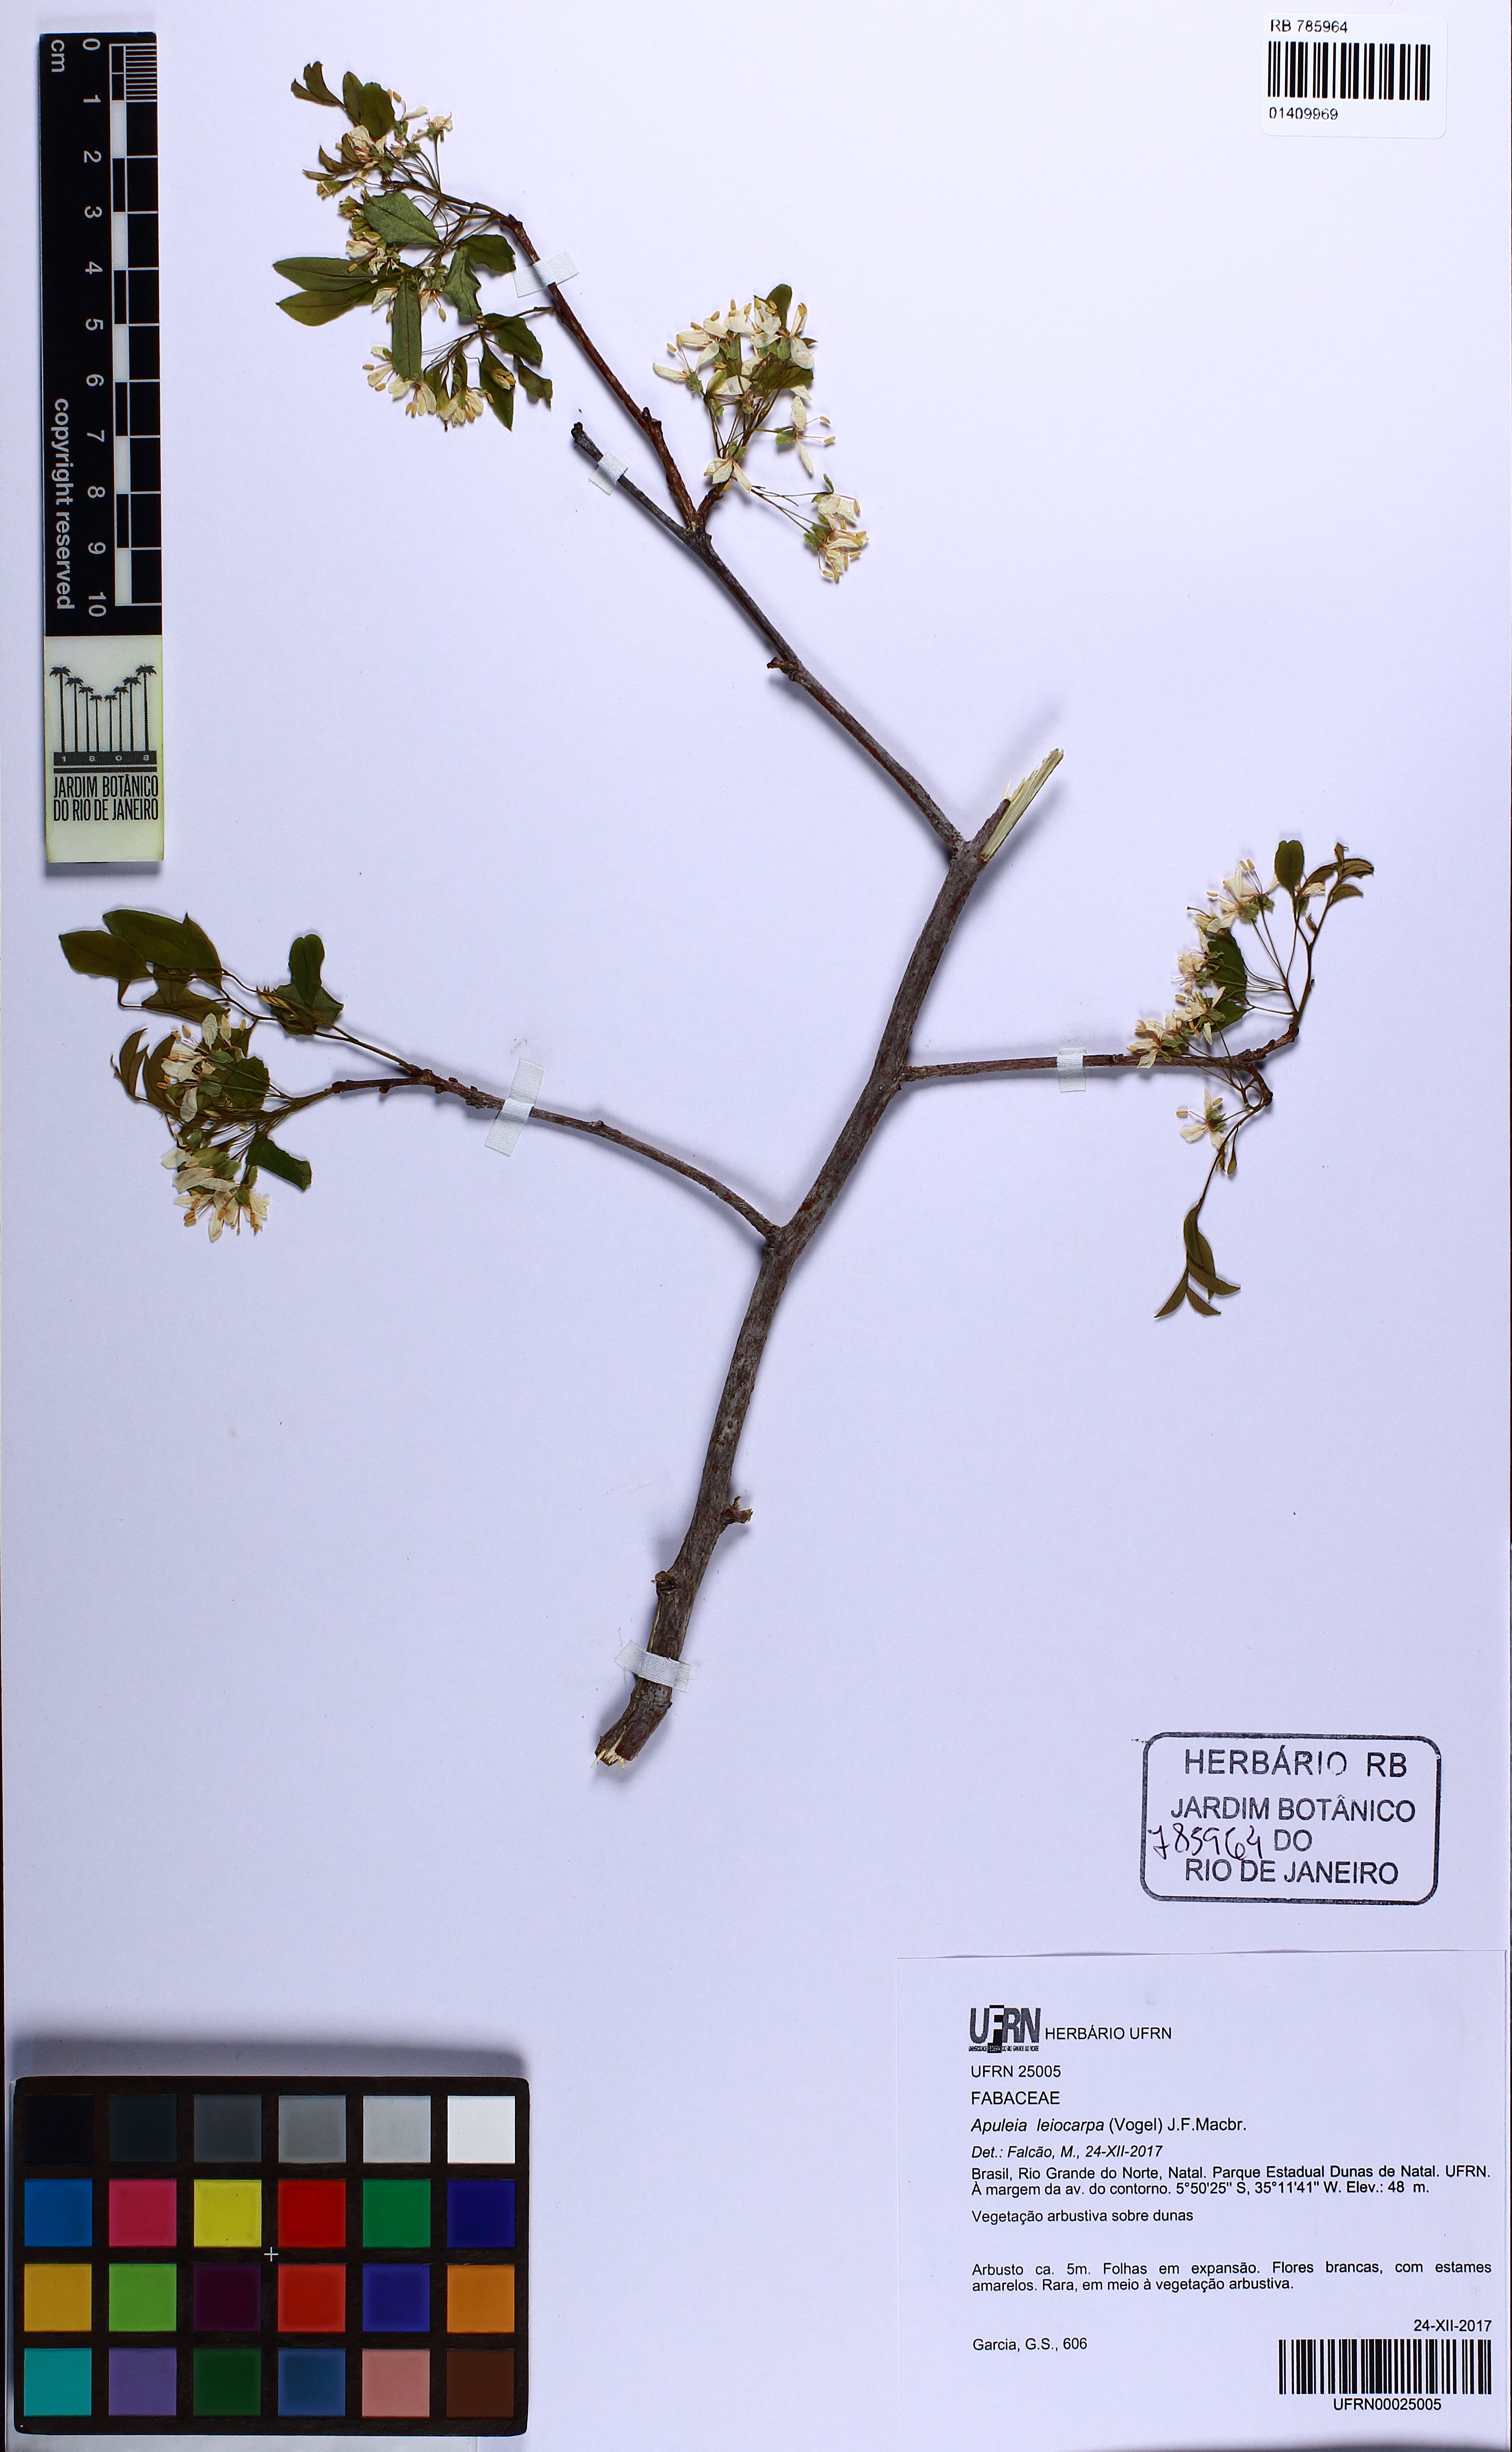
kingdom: Plantae
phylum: Tracheophyta
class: Magnoliopsida
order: Fabales
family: Fabaceae
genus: Apuleia
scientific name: Apuleia leiocarpa
